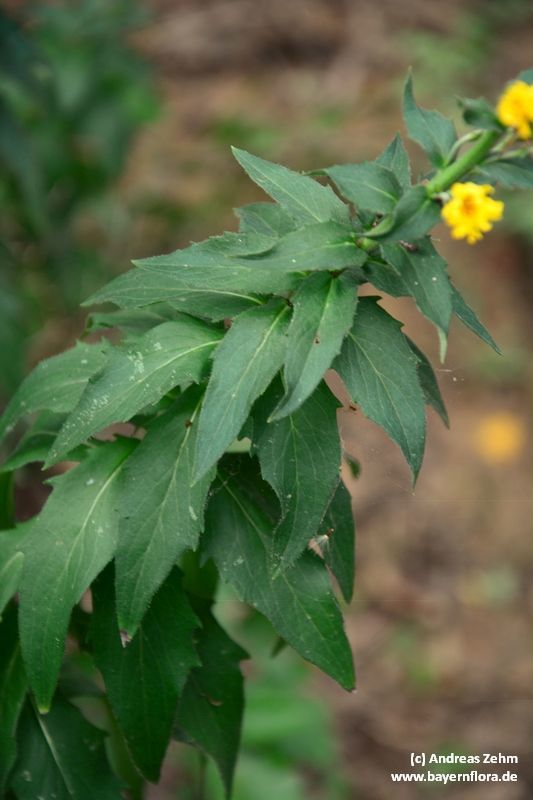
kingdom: Plantae
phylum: Tracheophyta
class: Magnoliopsida
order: Asterales
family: Asteraceae
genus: Hieracium
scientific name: Hieracium sabaudum
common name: New england hawkweed
